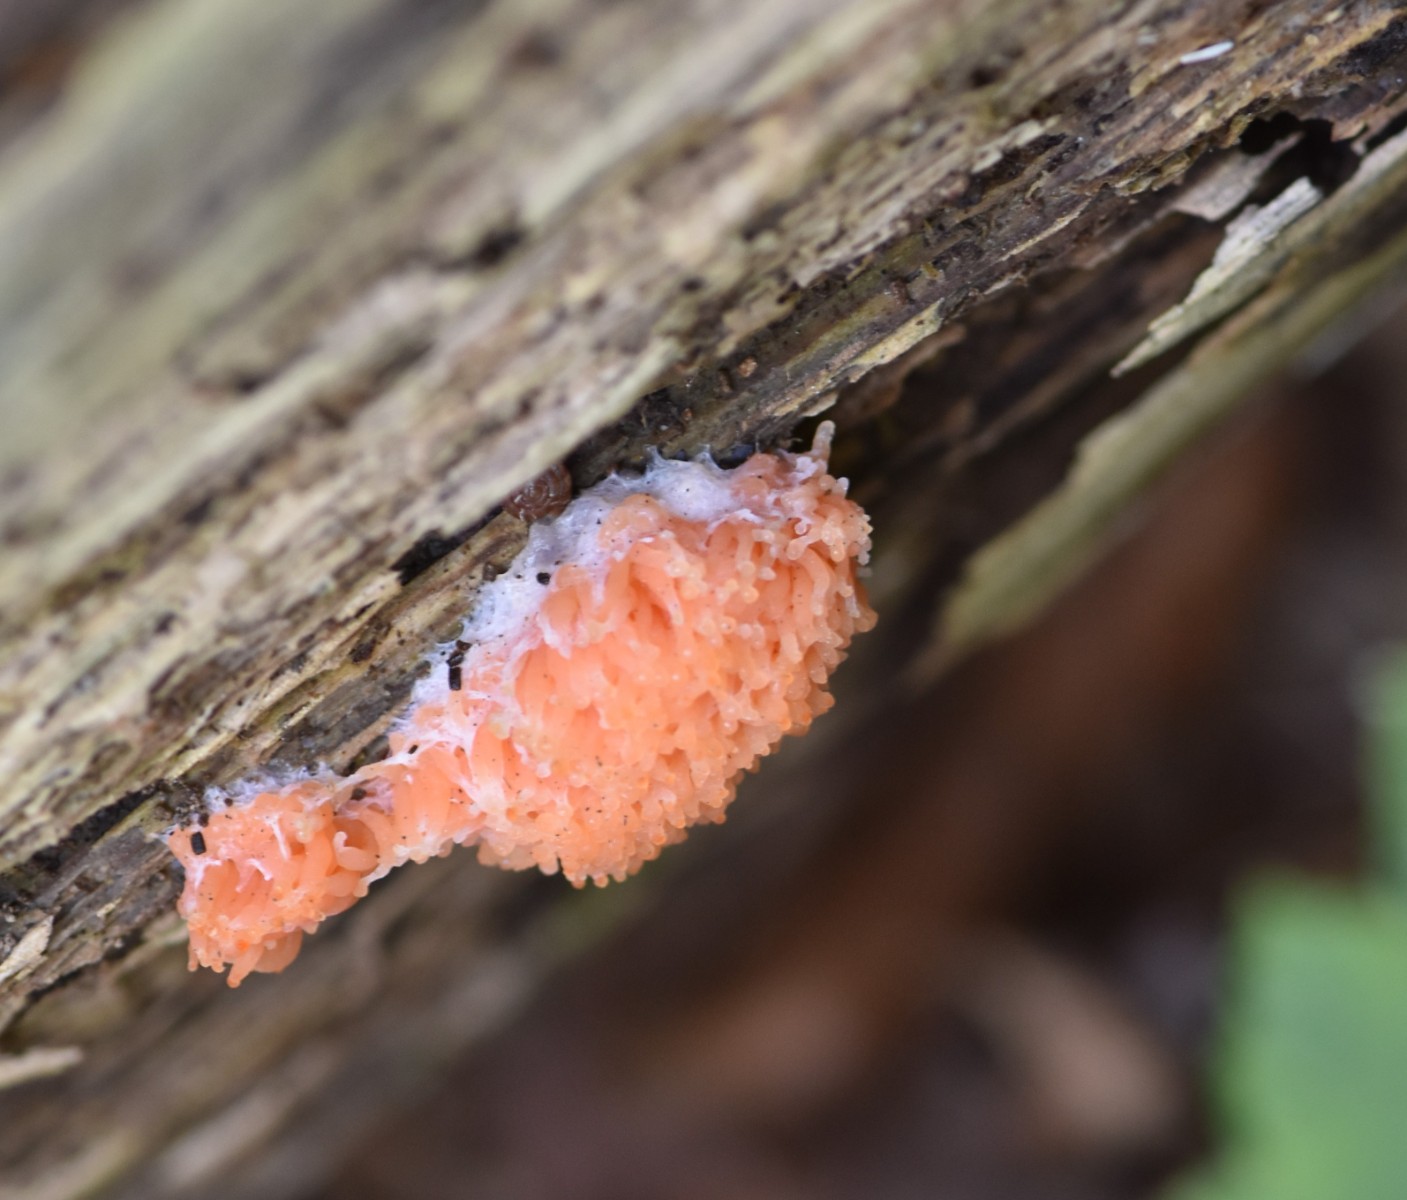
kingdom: Protozoa
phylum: Mycetozoa
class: Myxomycetes
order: Cribrariales
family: Tubiferaceae
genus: Tubifera
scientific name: Tubifera ferruginosa
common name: kanel-støvrør
